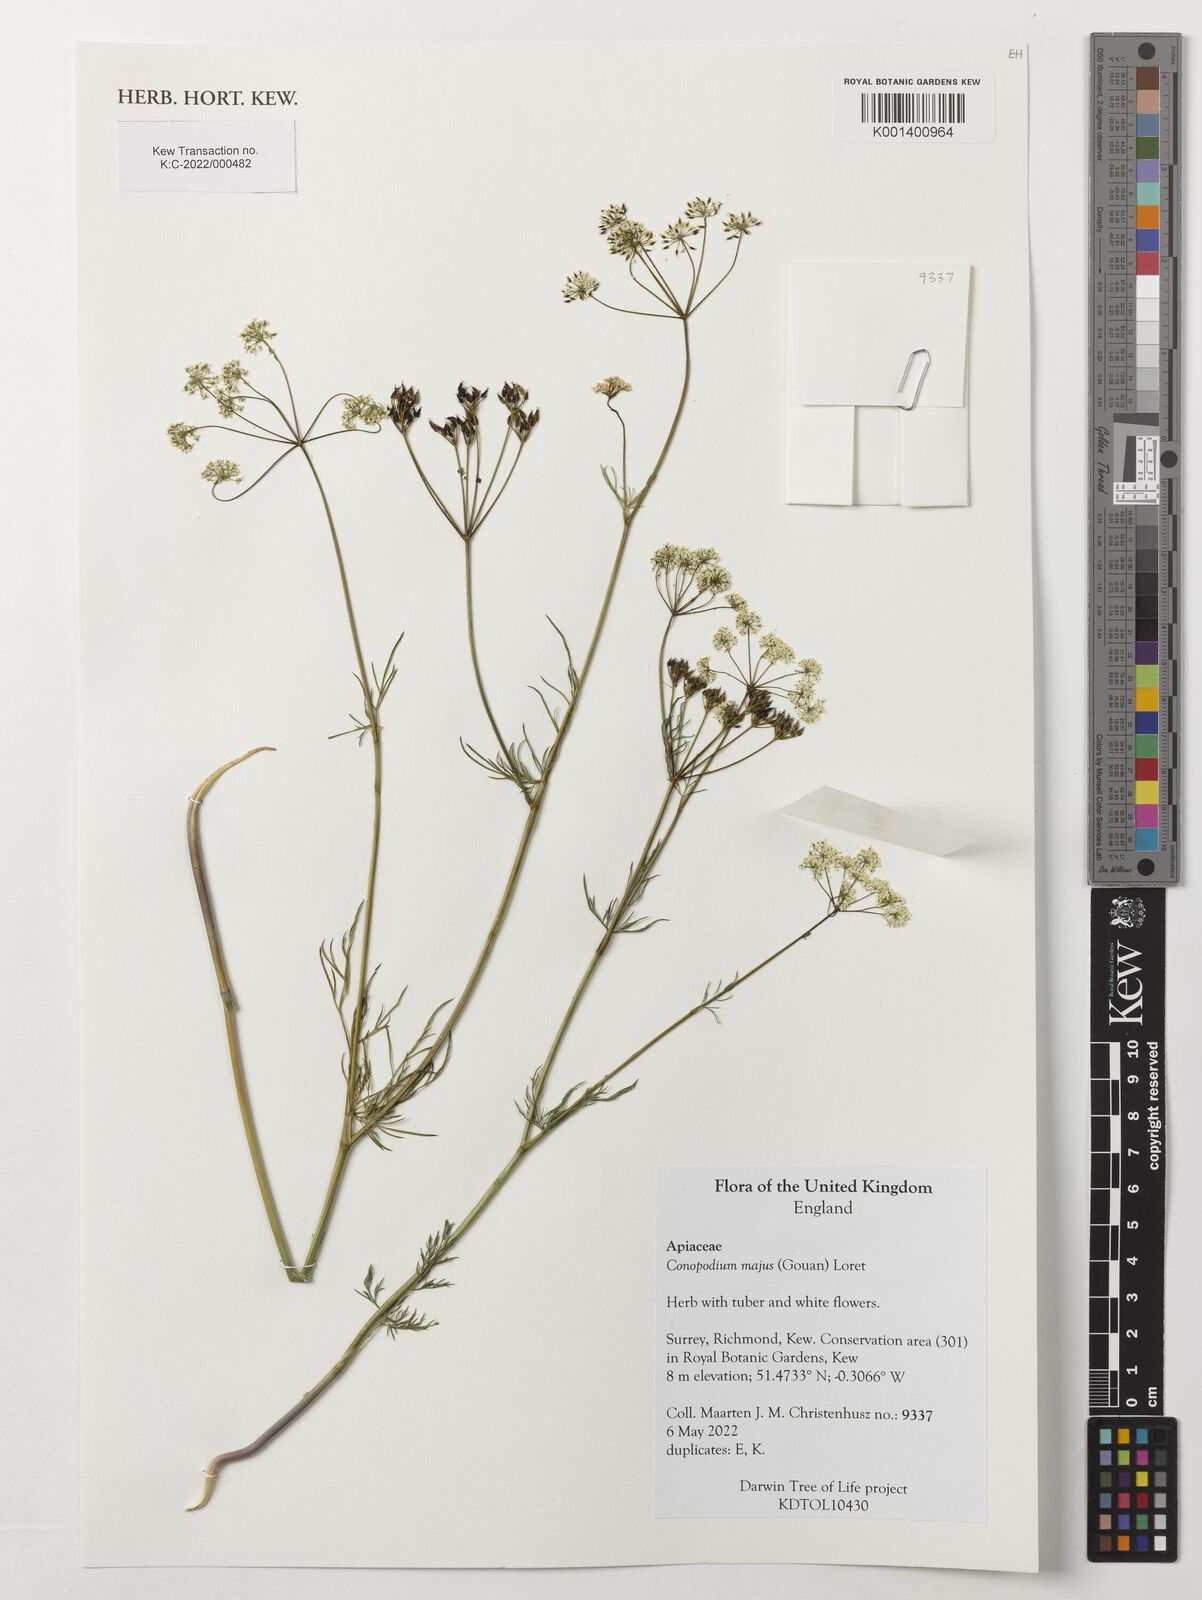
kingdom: Plantae
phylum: Tracheophyta
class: Magnoliopsida
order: Apiales
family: Apiaceae
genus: Conopodium
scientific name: Conopodium majus
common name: Pignut
